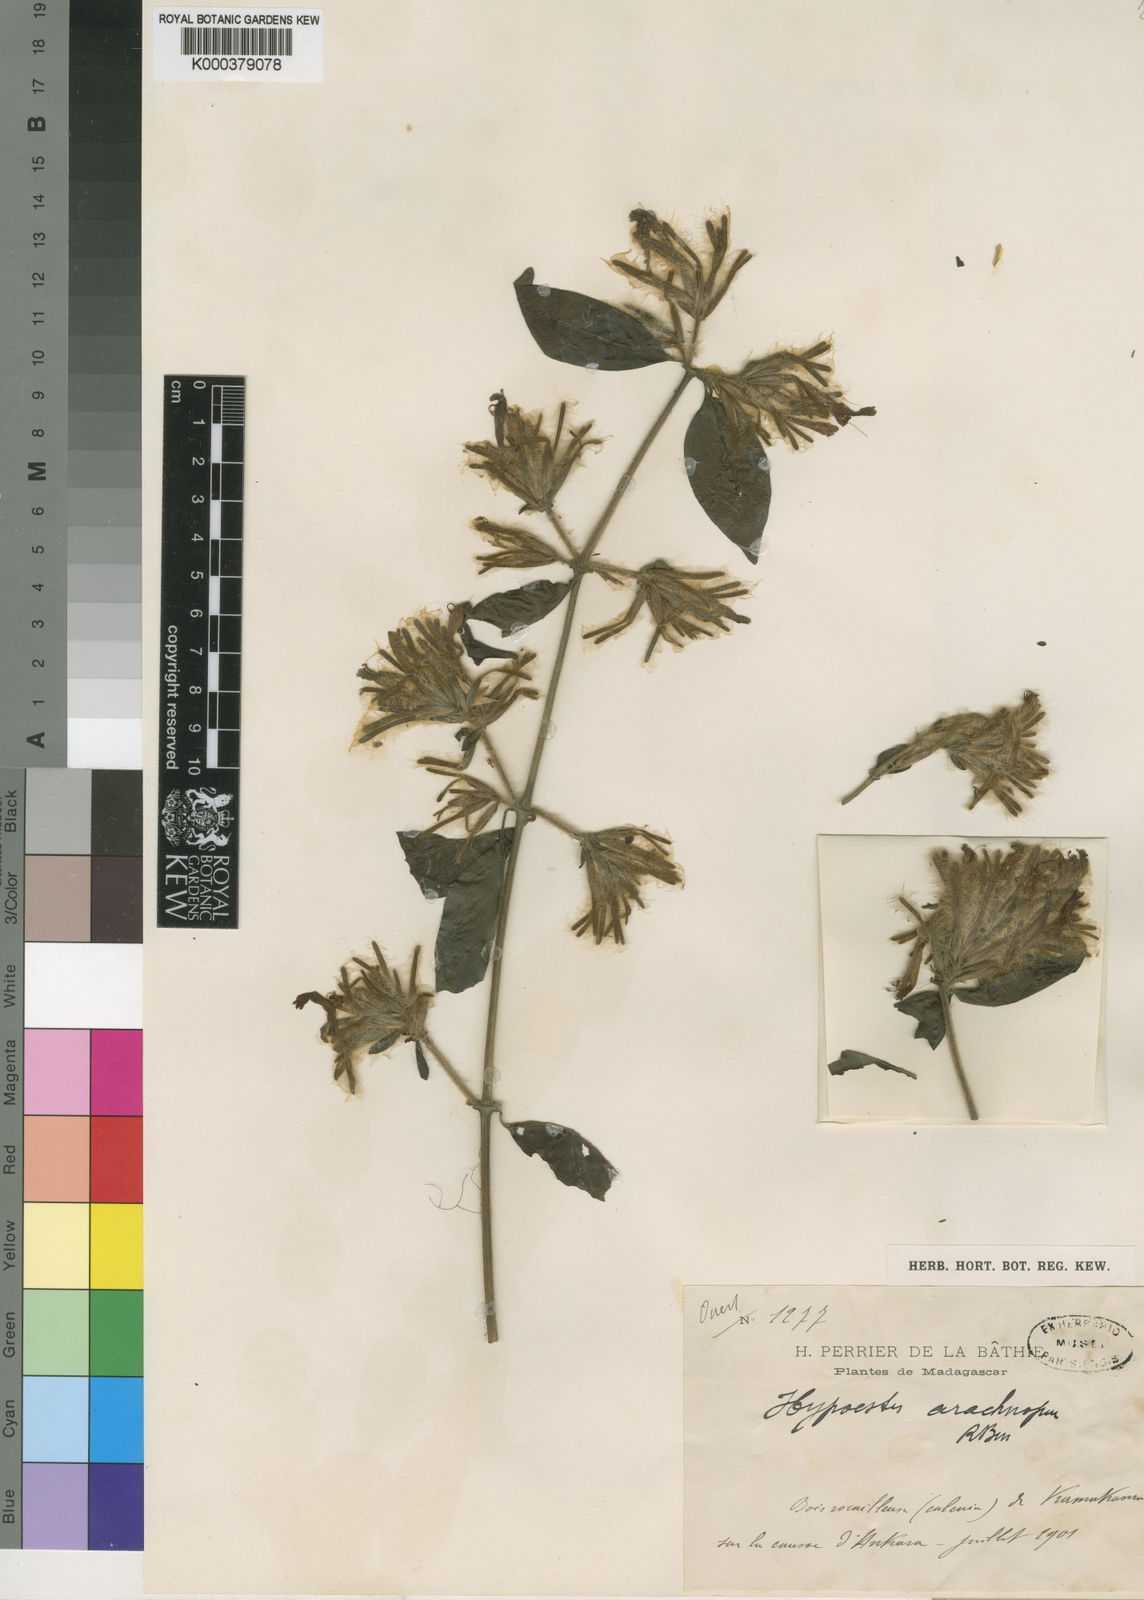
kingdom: Plantae
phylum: Tracheophyta
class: Magnoliopsida
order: Lamiales
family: Acanthaceae
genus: Hypoestes
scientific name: Hypoestes arachnopus
